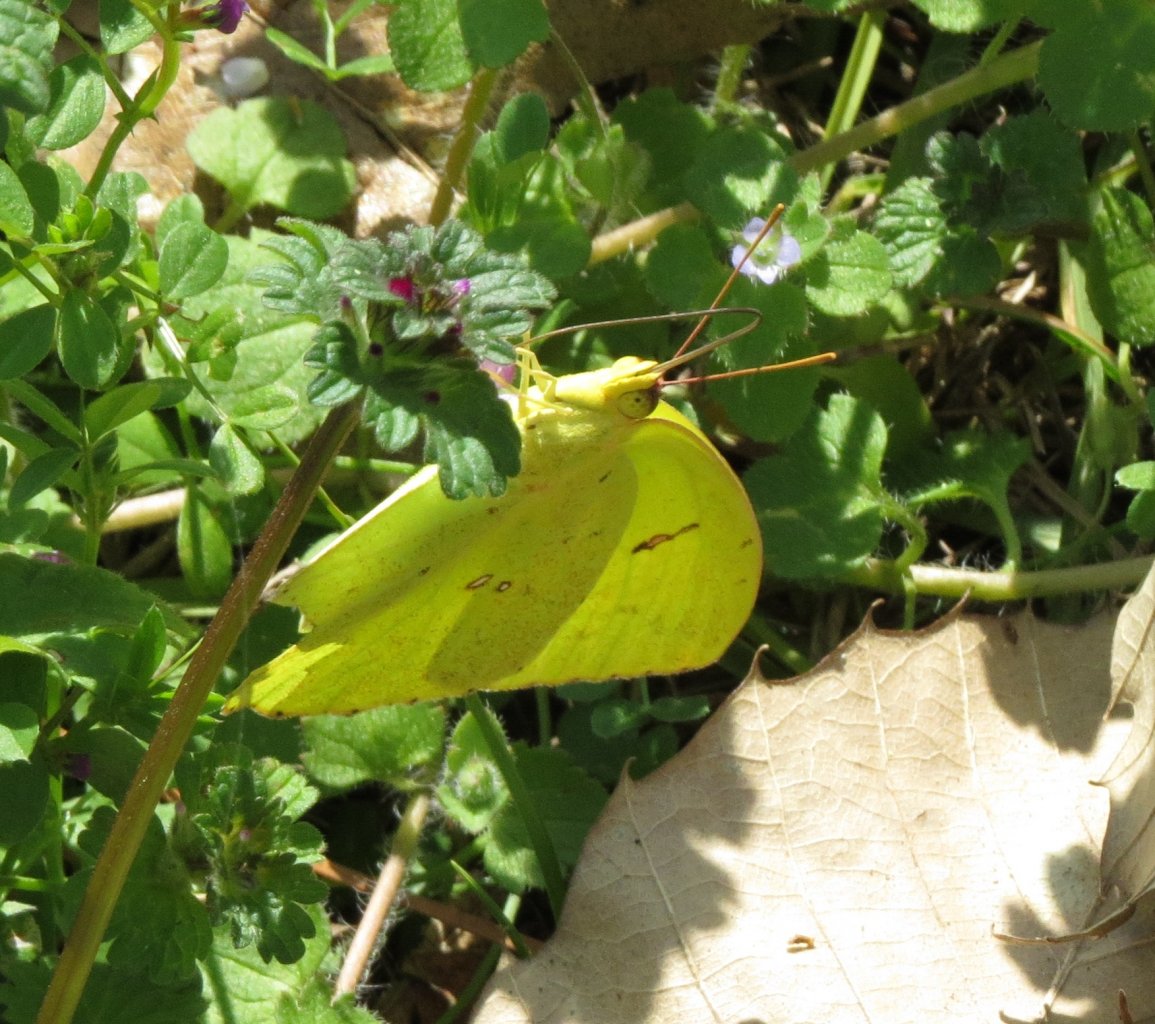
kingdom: Animalia
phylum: Arthropoda
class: Insecta
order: Lepidoptera
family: Pieridae
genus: Phoebis
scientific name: Phoebis sennae
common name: Cloudless Sulphur
